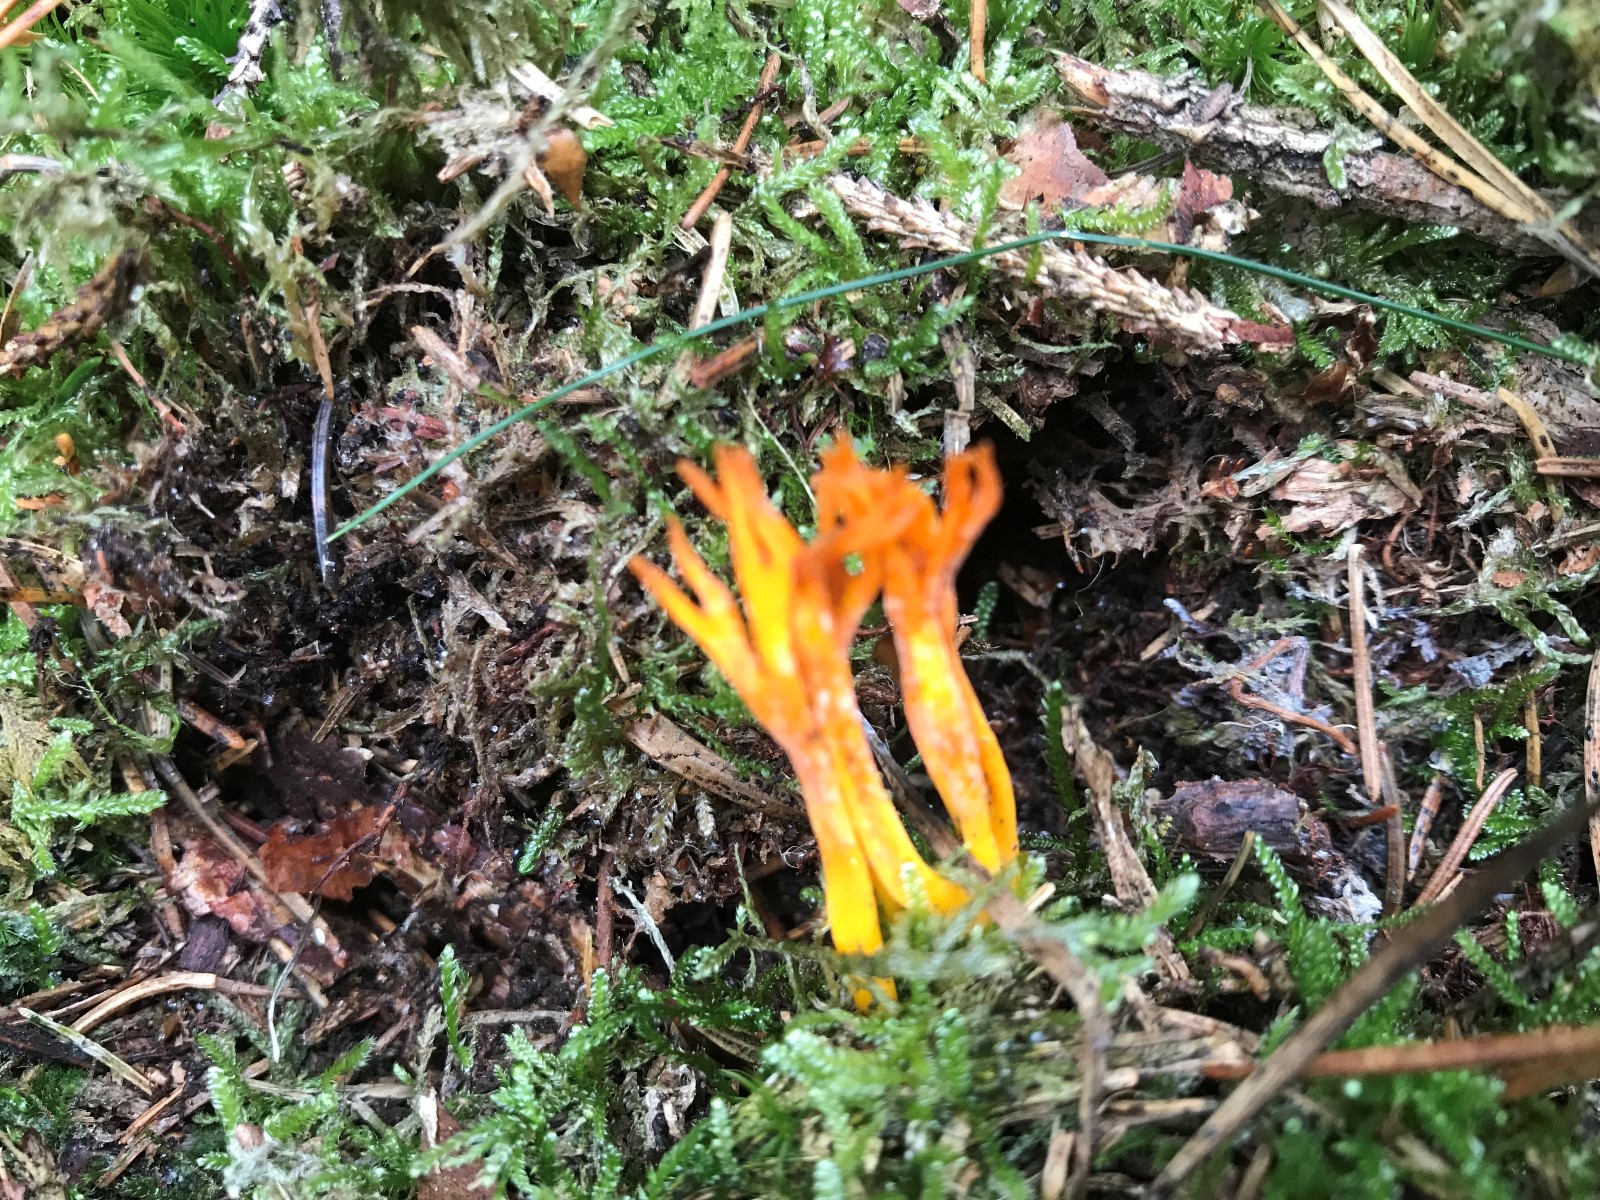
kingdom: Fungi
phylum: Basidiomycota
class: Dacrymycetes
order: Dacrymycetales
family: Dacrymycetaceae
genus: Calocera
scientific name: Calocera viscosa
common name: almindelig guldgaffel
